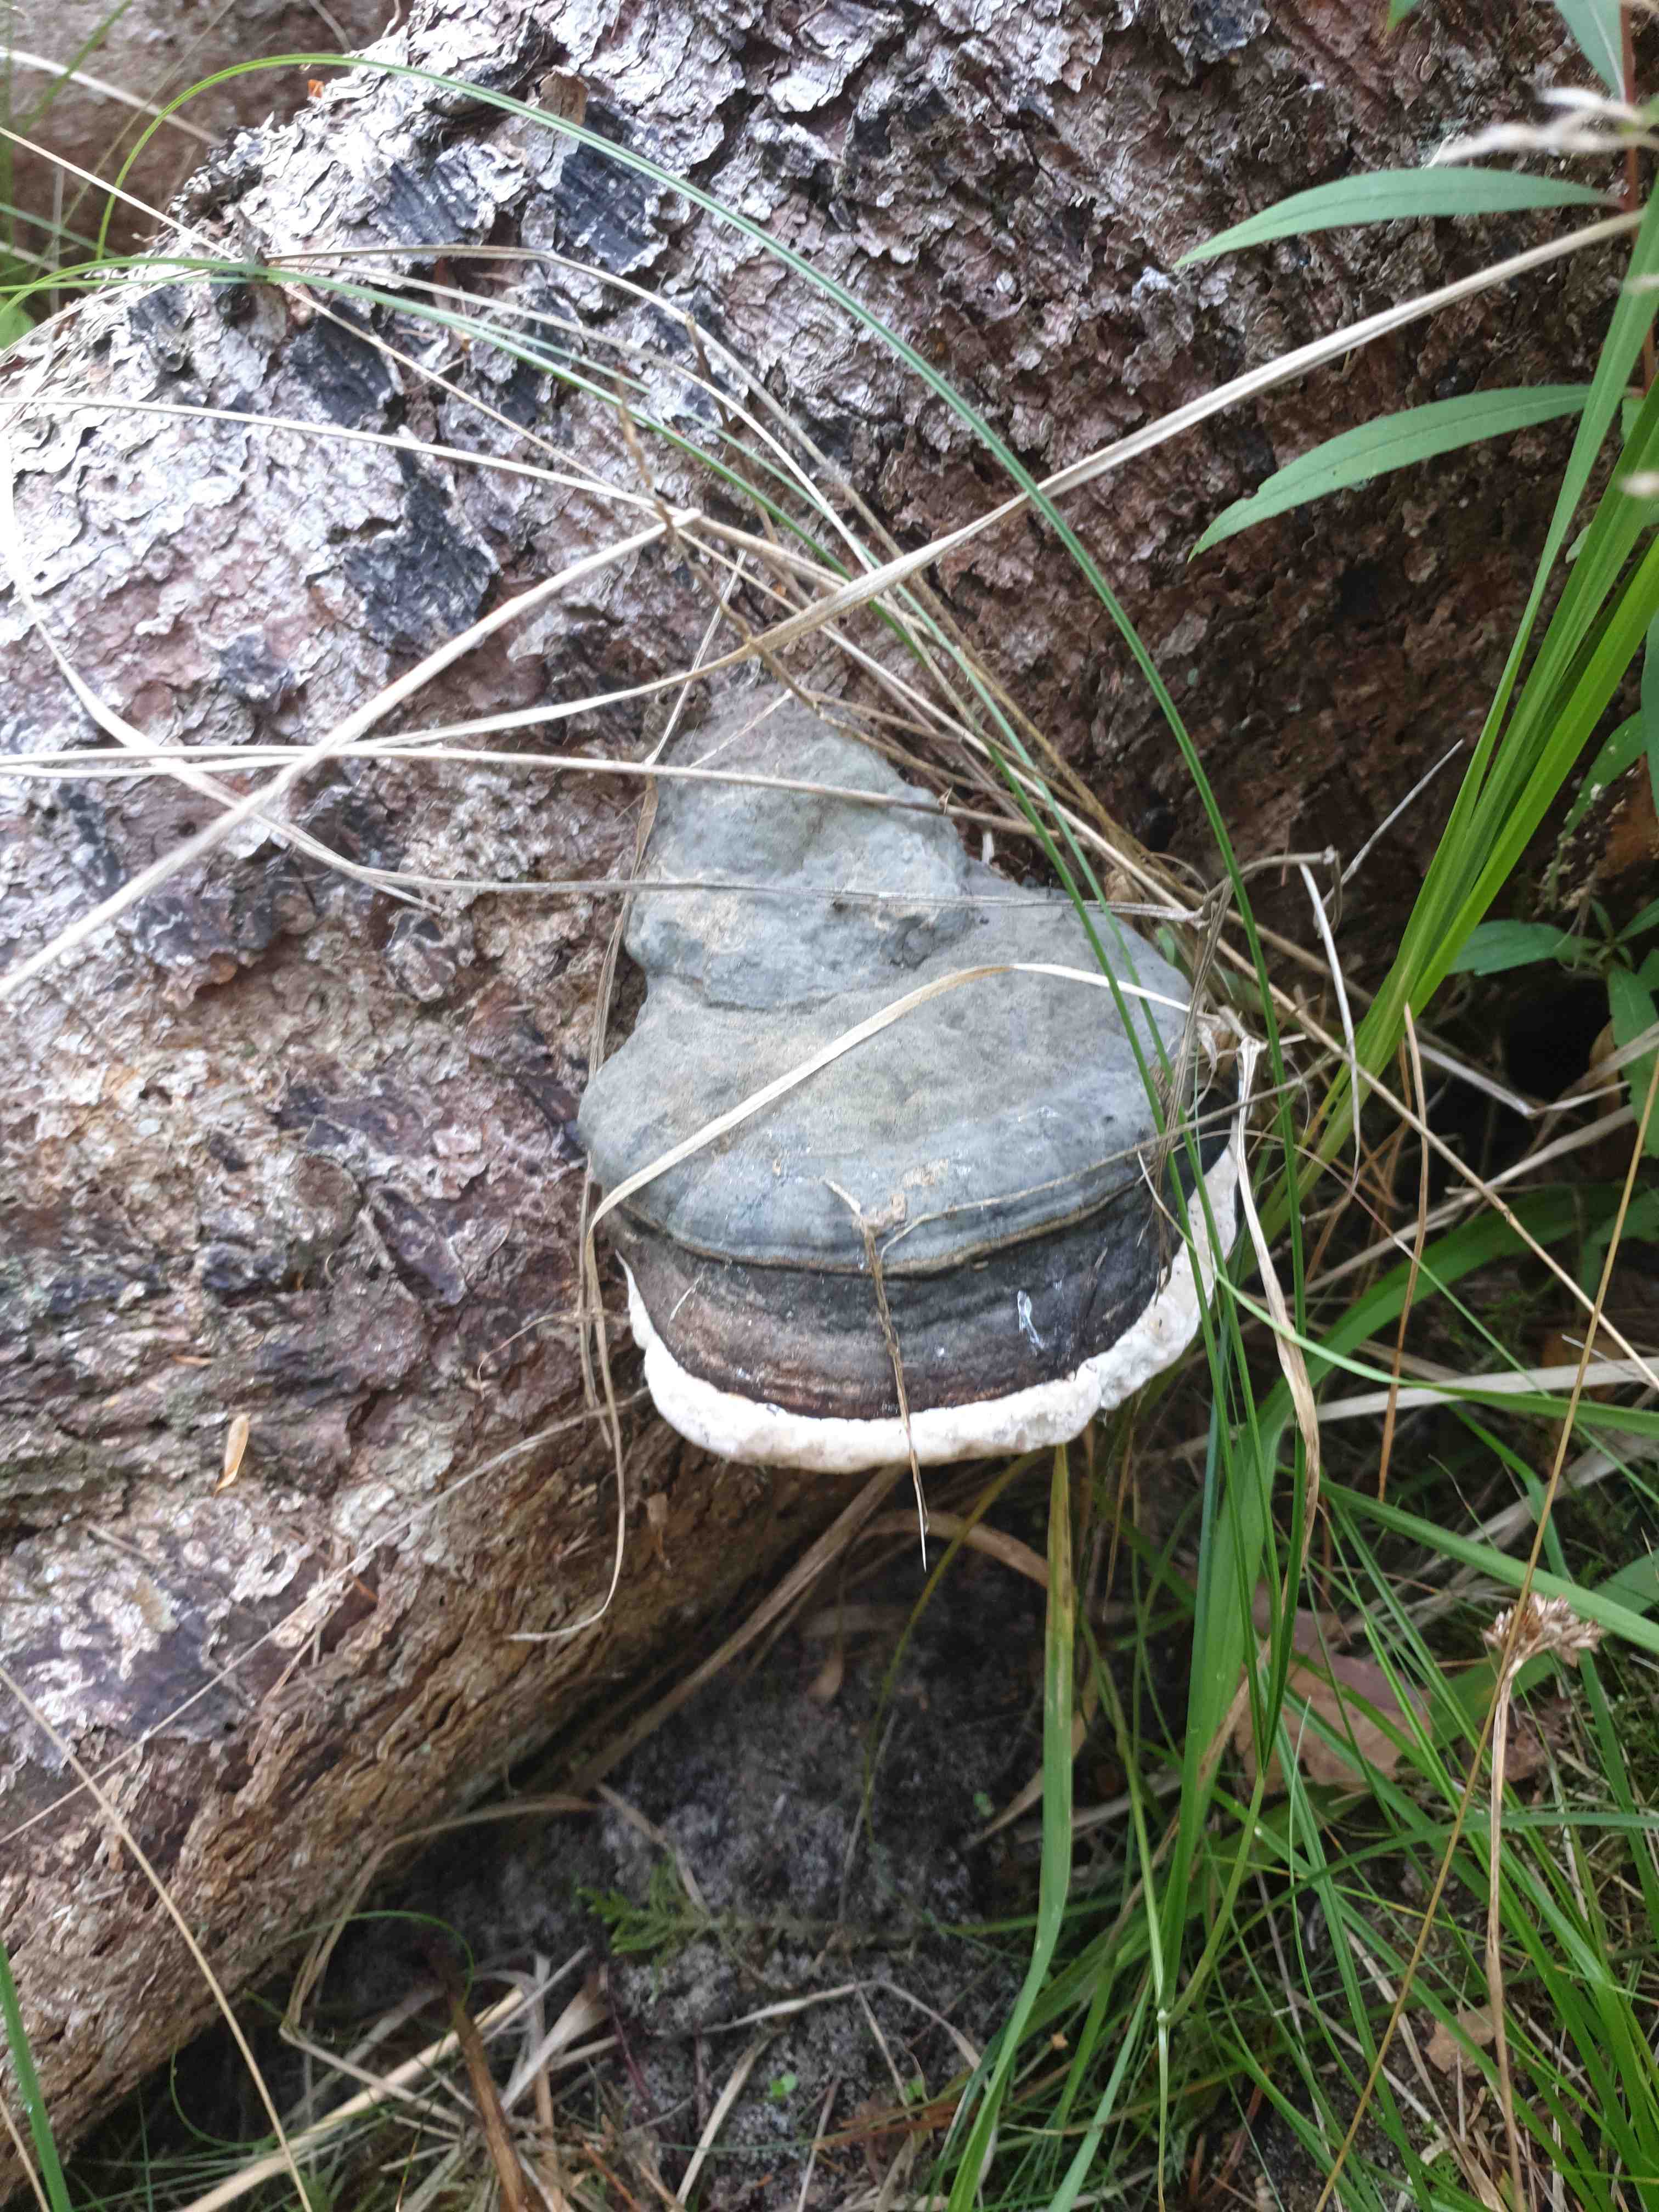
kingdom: Fungi
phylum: Basidiomycota
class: Agaricomycetes
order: Polyporales
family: Polyporaceae
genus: Fomes
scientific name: Fomes fomentarius
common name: tøndersvamp
